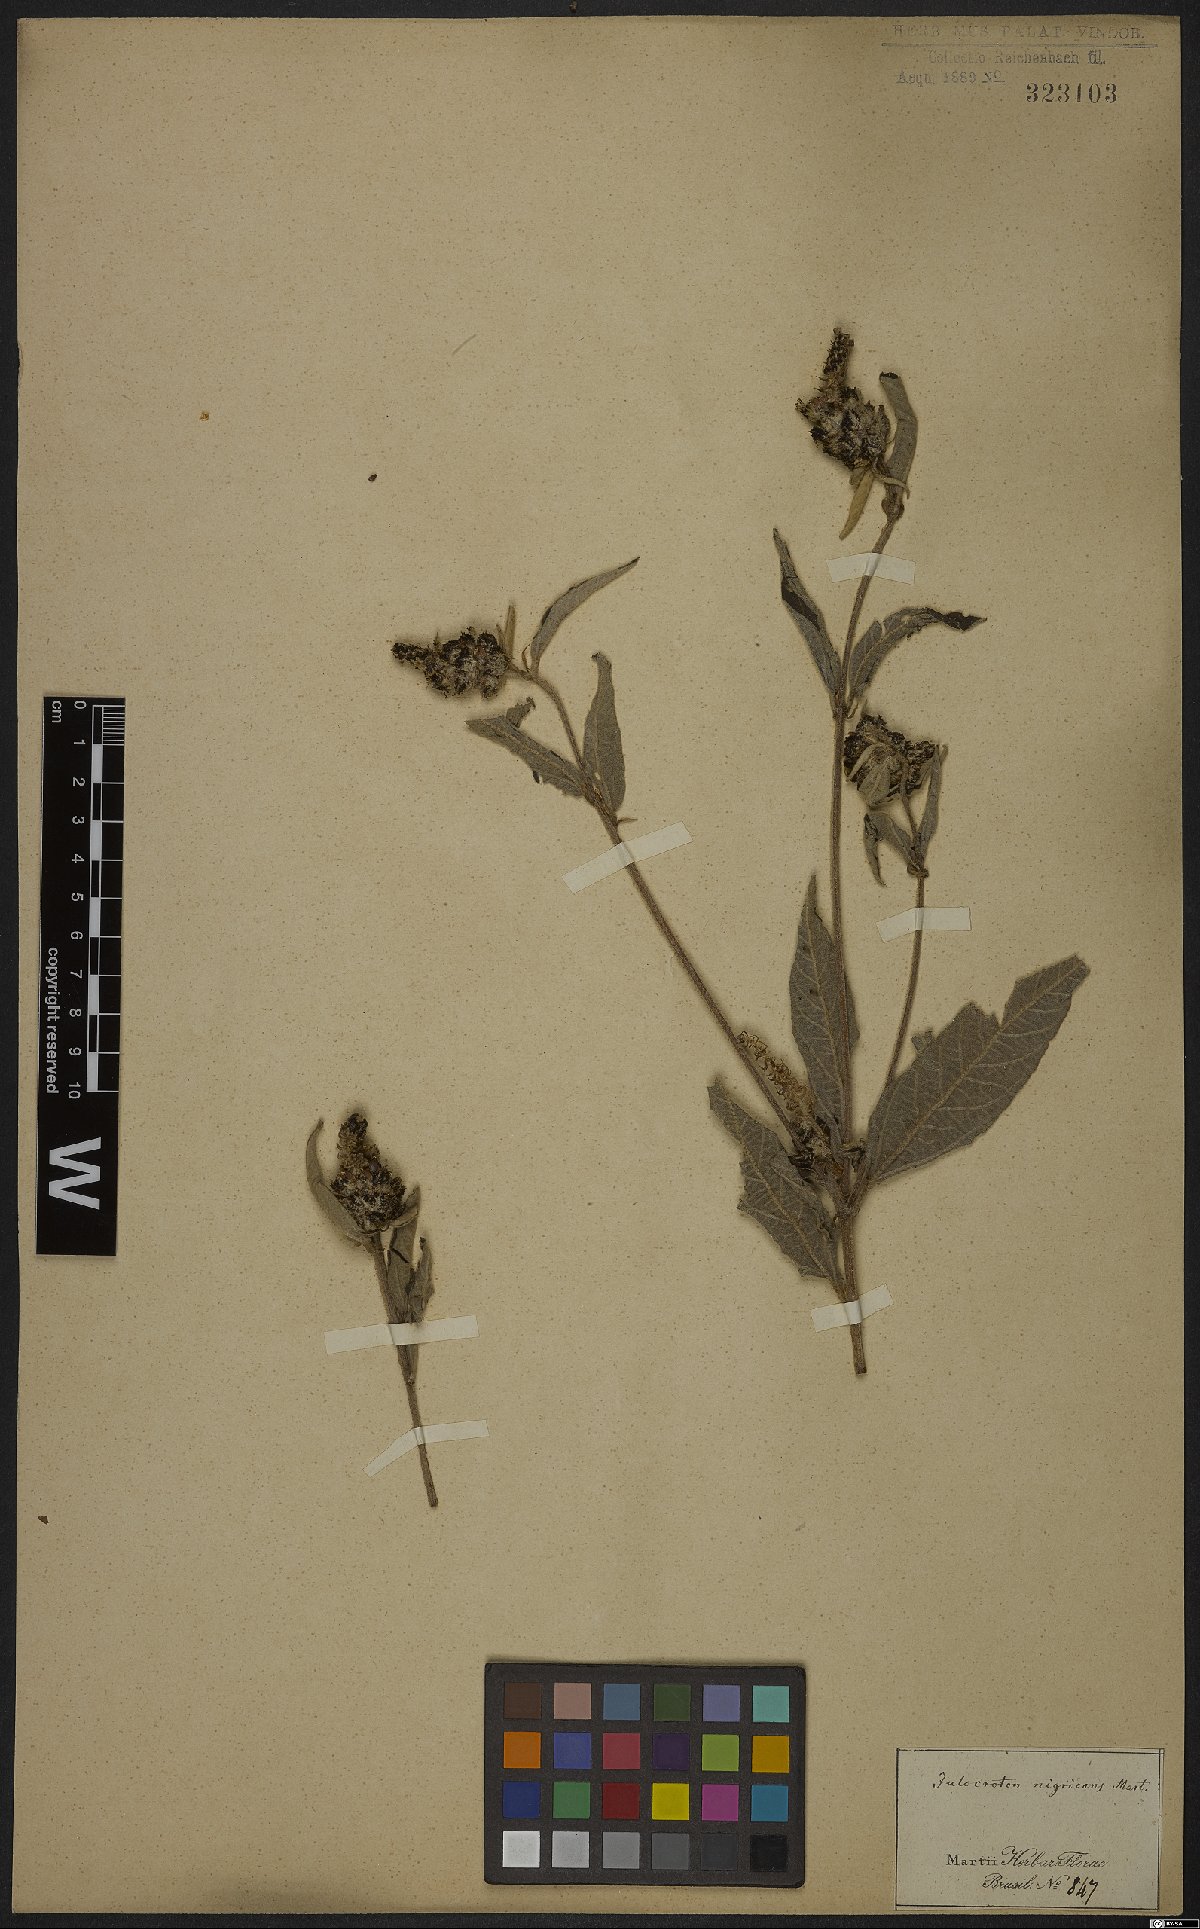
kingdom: Plantae
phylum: Tracheophyta
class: Magnoliopsida
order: Malpighiales
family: Euphorbiaceae
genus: Croton
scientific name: Croton gnaphaloides
